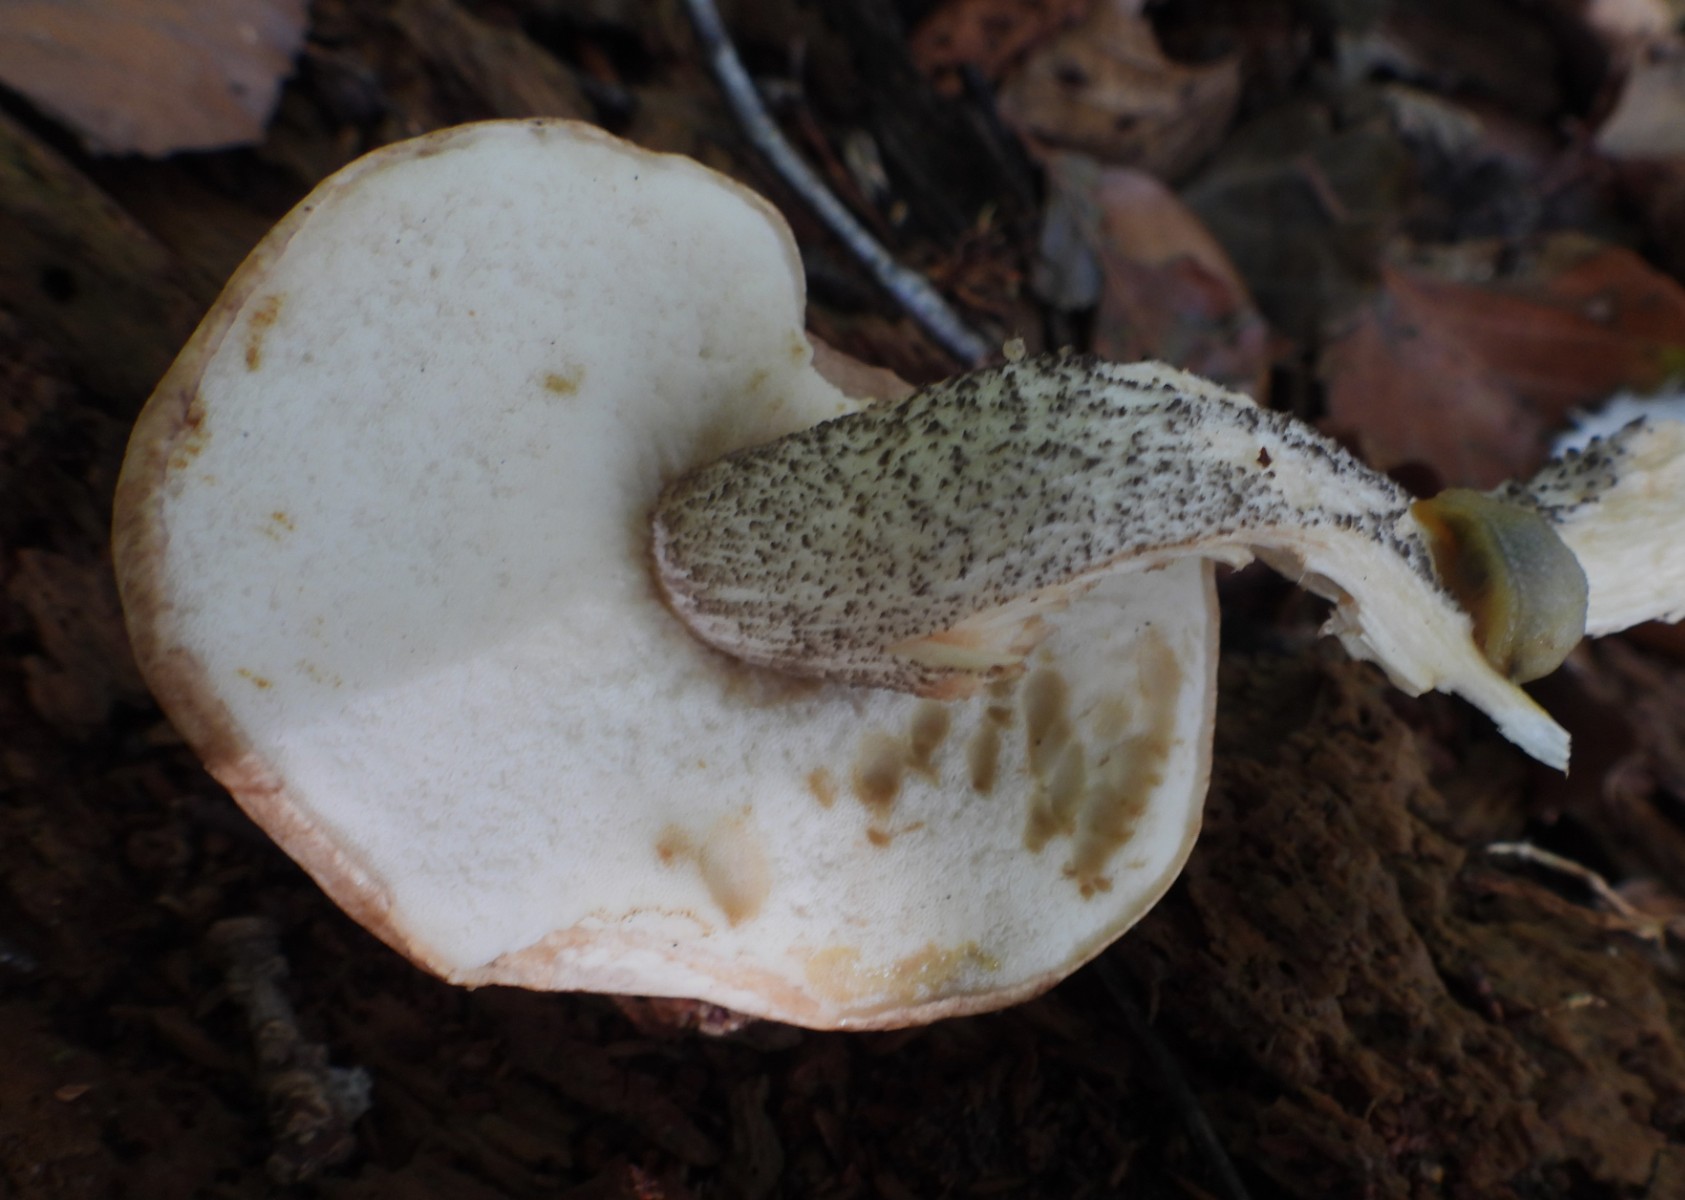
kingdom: Fungi
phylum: Basidiomycota
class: Agaricomycetes
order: Boletales
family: Boletaceae
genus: Leccinum
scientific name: Leccinum scabrum
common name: brun skælrørhat
